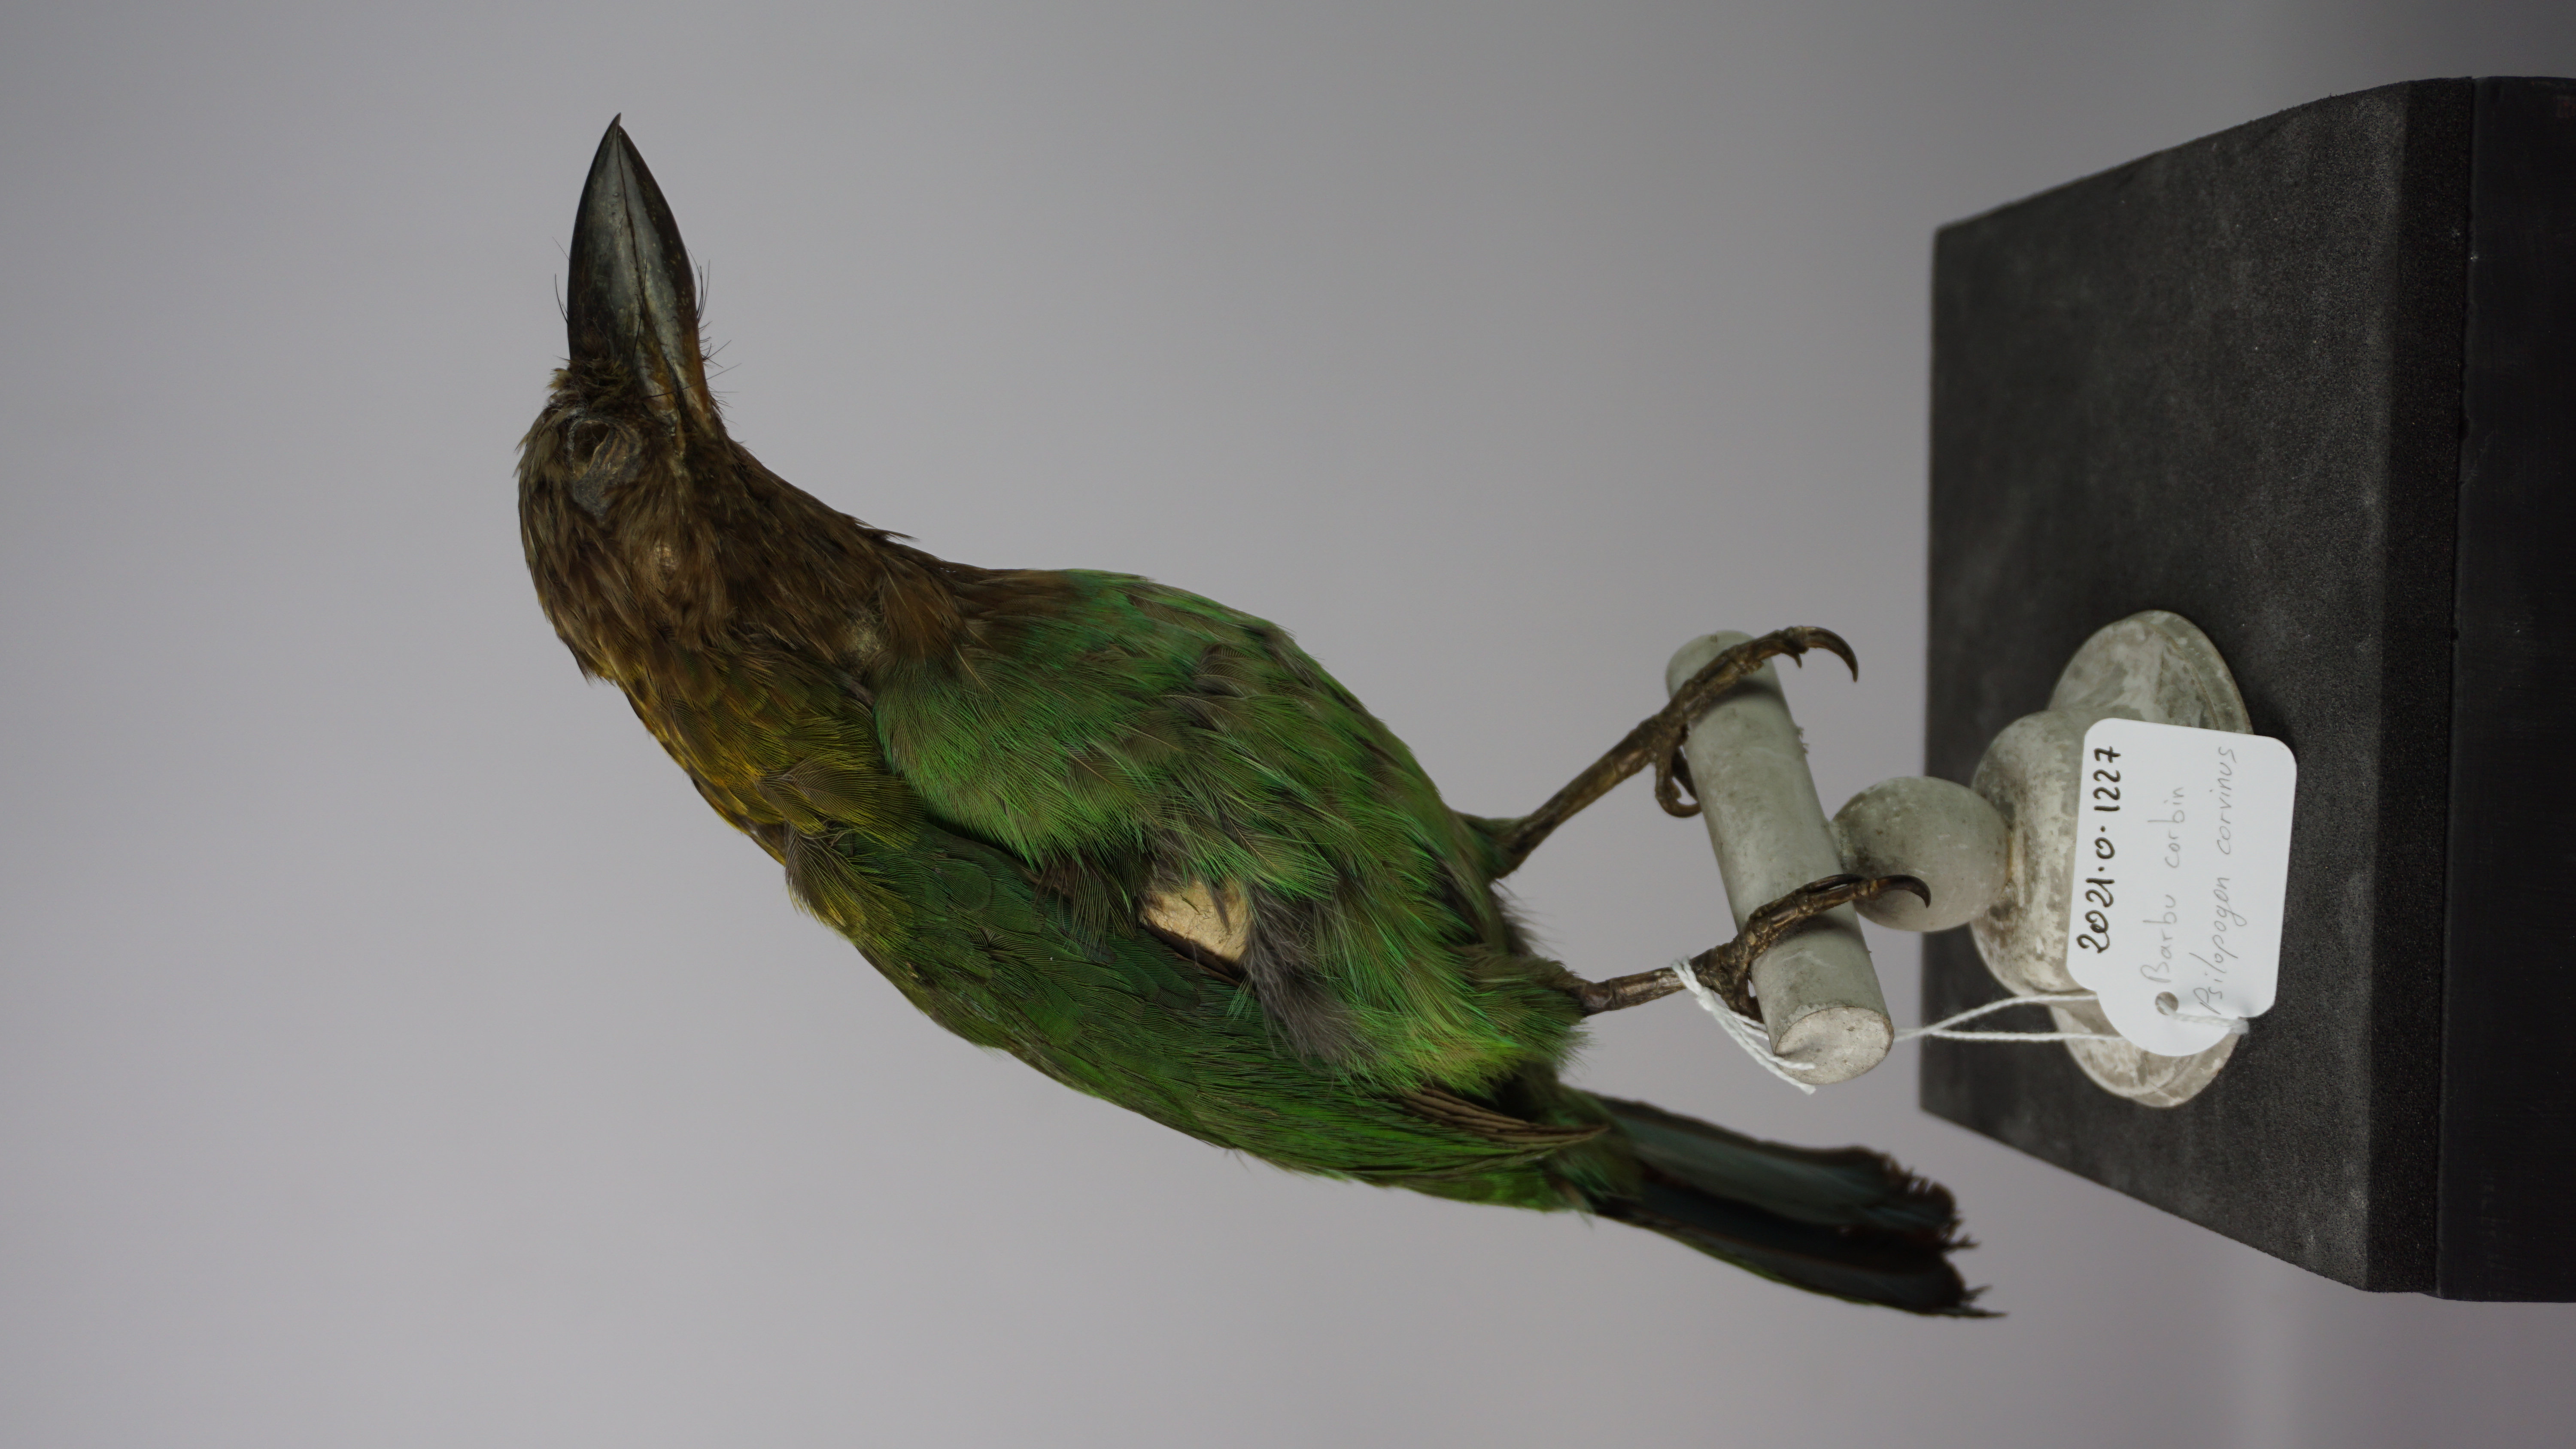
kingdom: Animalia
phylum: Chordata
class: Aves
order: Piciformes
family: Megalaimidae
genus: Psilopogon
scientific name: Psilopogon corvinus
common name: Brown-throated barbet
